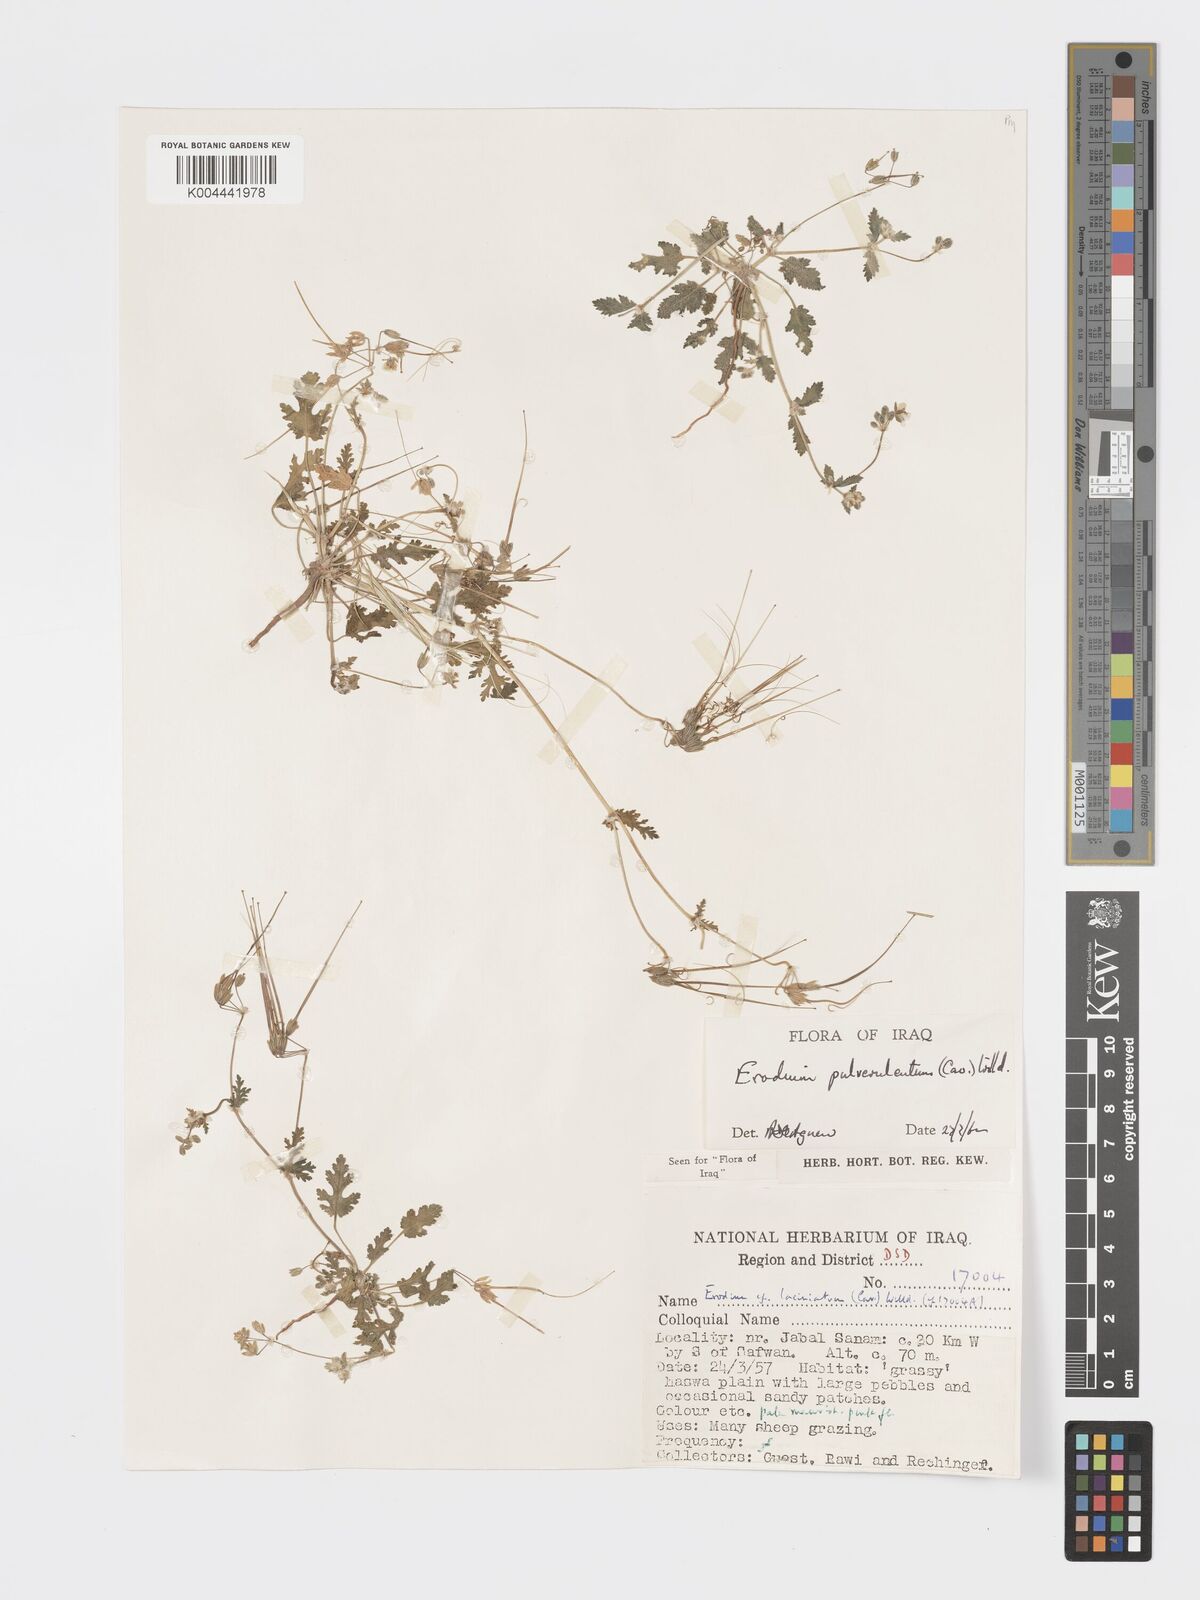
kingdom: Plantae
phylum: Tracheophyta
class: Magnoliopsida
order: Geraniales
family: Geraniaceae
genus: Erodium
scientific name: Erodium laciniatum
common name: Cutleaf stork's bill
